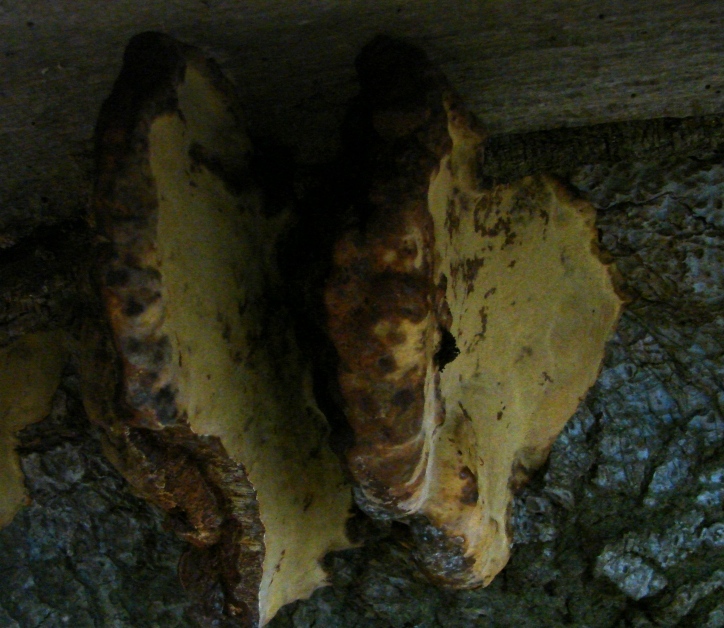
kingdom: Fungi
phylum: Basidiomycota
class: Agaricomycetes
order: Polyporales
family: Polyporaceae
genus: Ganoderma
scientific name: Ganoderma pfeifferi
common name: kobberrød lakporesvamp
